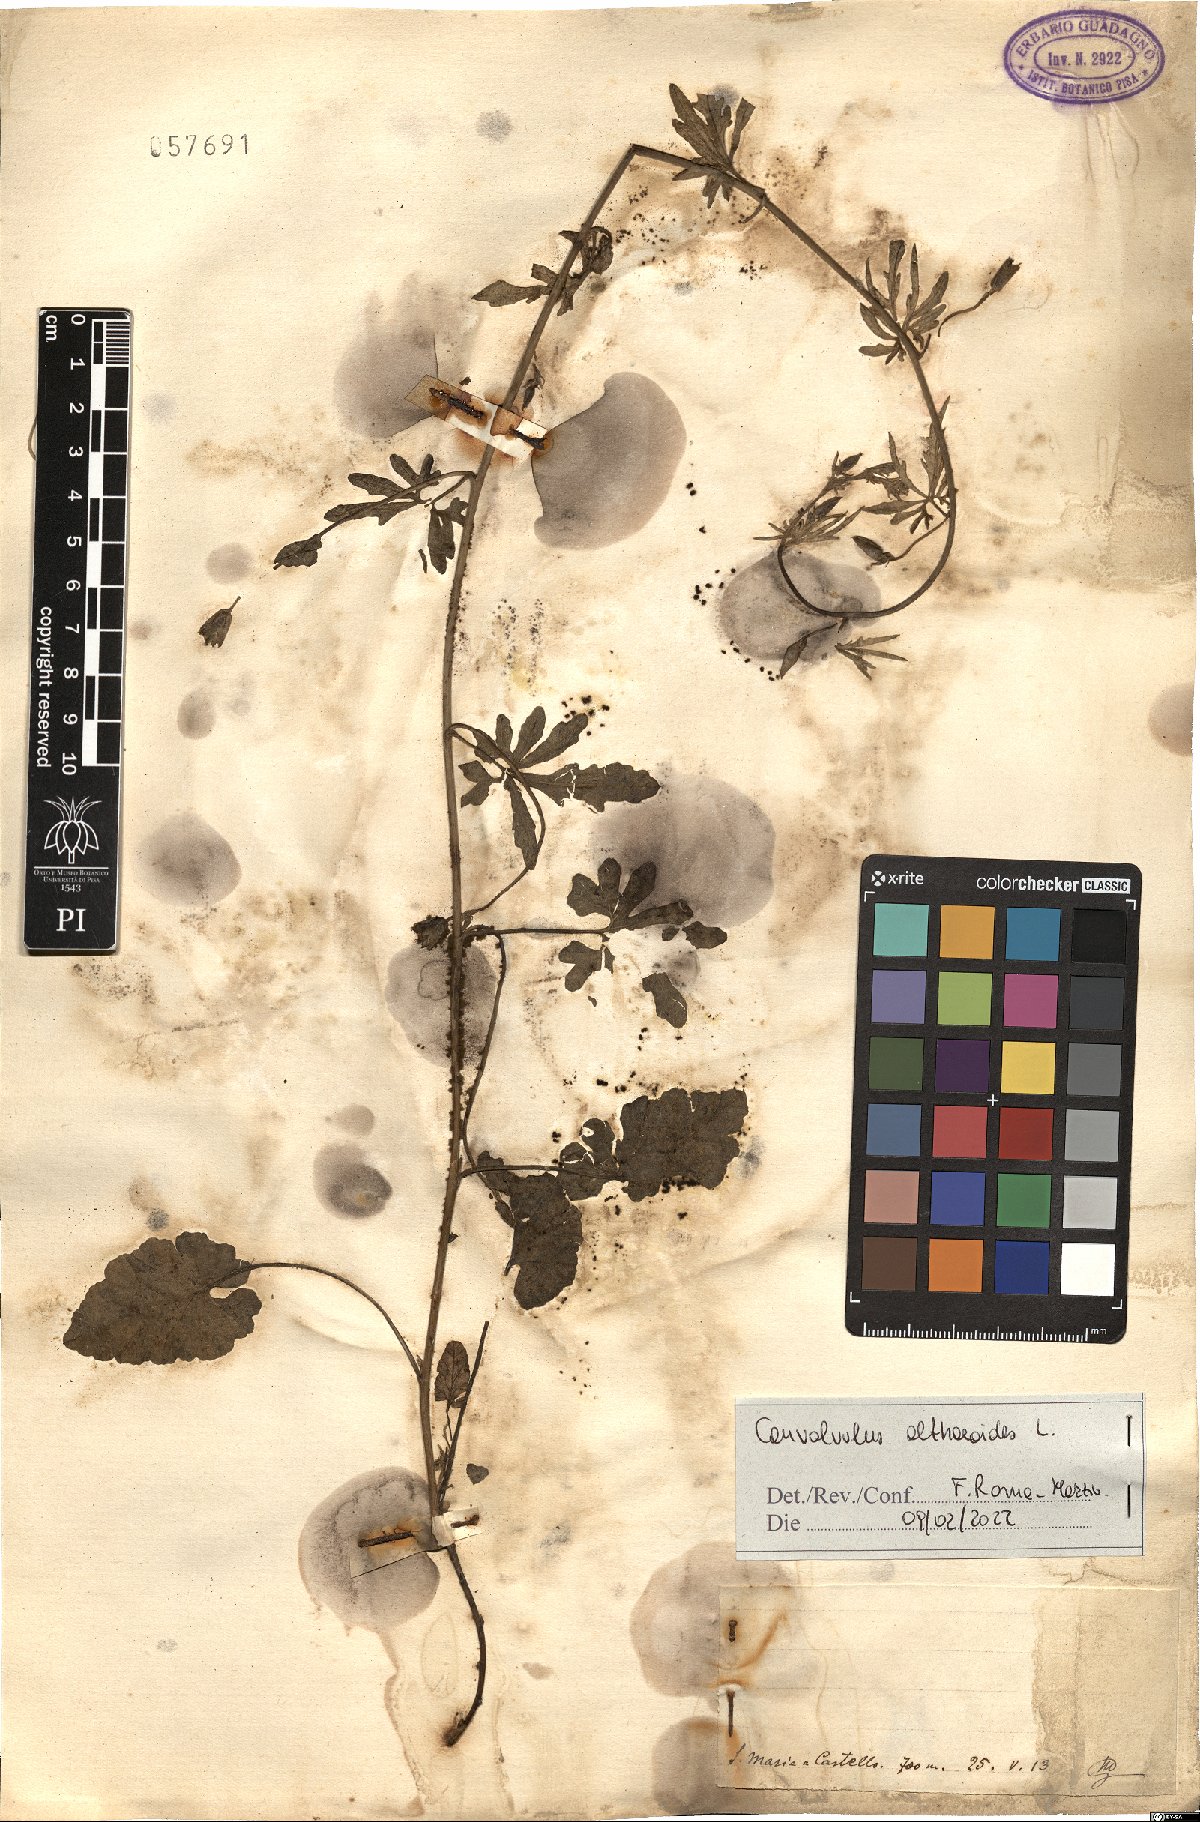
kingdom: Plantae
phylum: Tracheophyta
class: Magnoliopsida
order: Solanales
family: Convolvulaceae
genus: Convolvulus
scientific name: Convolvulus althaeoides
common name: Mallow bindweed
